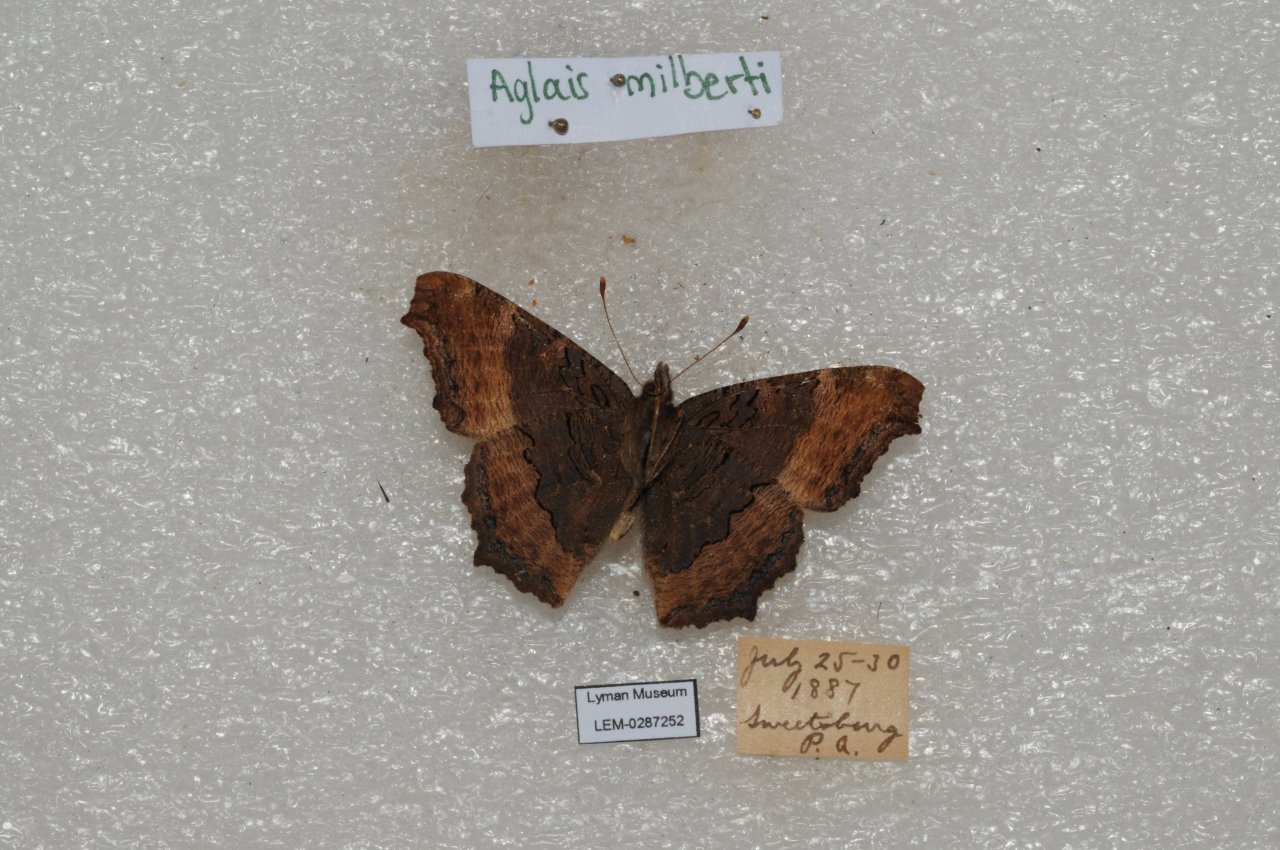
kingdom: Animalia
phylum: Arthropoda
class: Insecta
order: Lepidoptera
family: Nymphalidae
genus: Aglais
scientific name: Aglais milberti
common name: Milbert's Tortoiseshell
